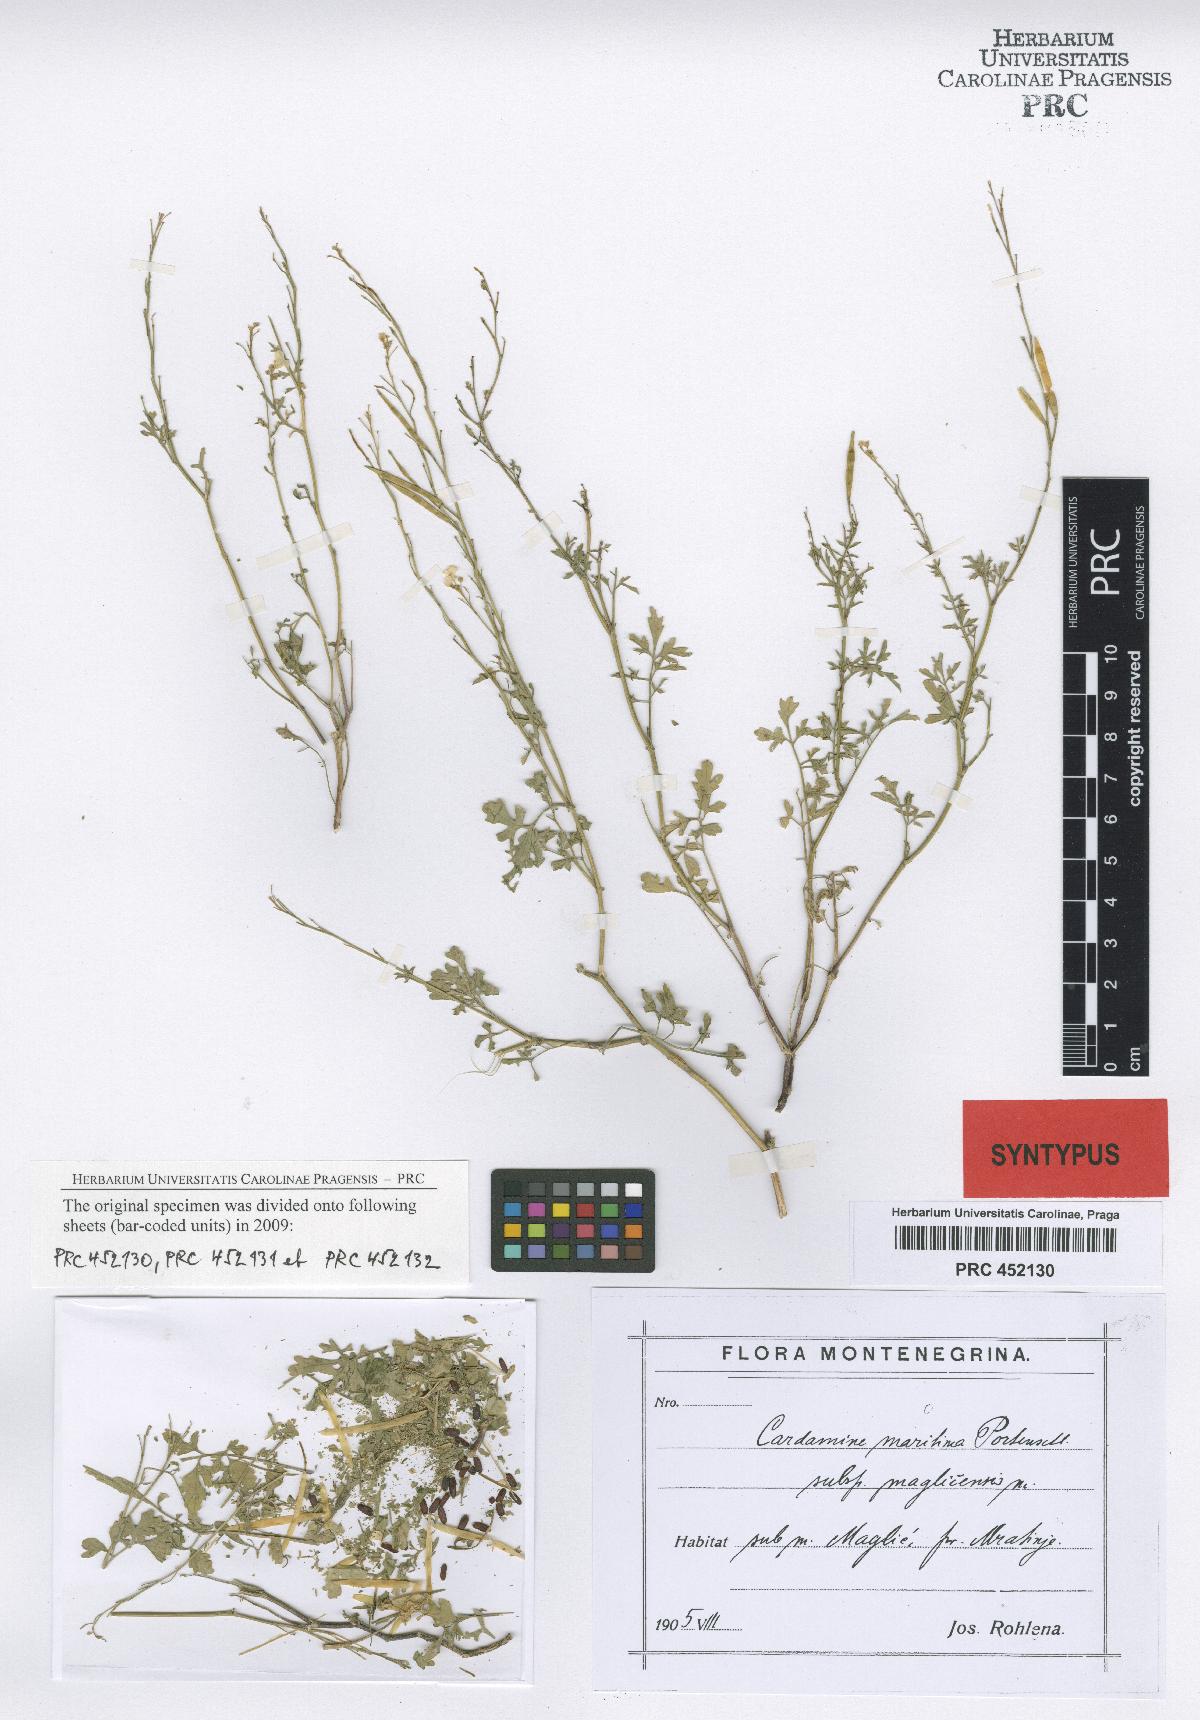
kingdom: Plantae
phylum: Tracheophyta
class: Magnoliopsida
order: Brassicales
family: Brassicaceae
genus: Cardamine
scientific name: Cardamine maritima
